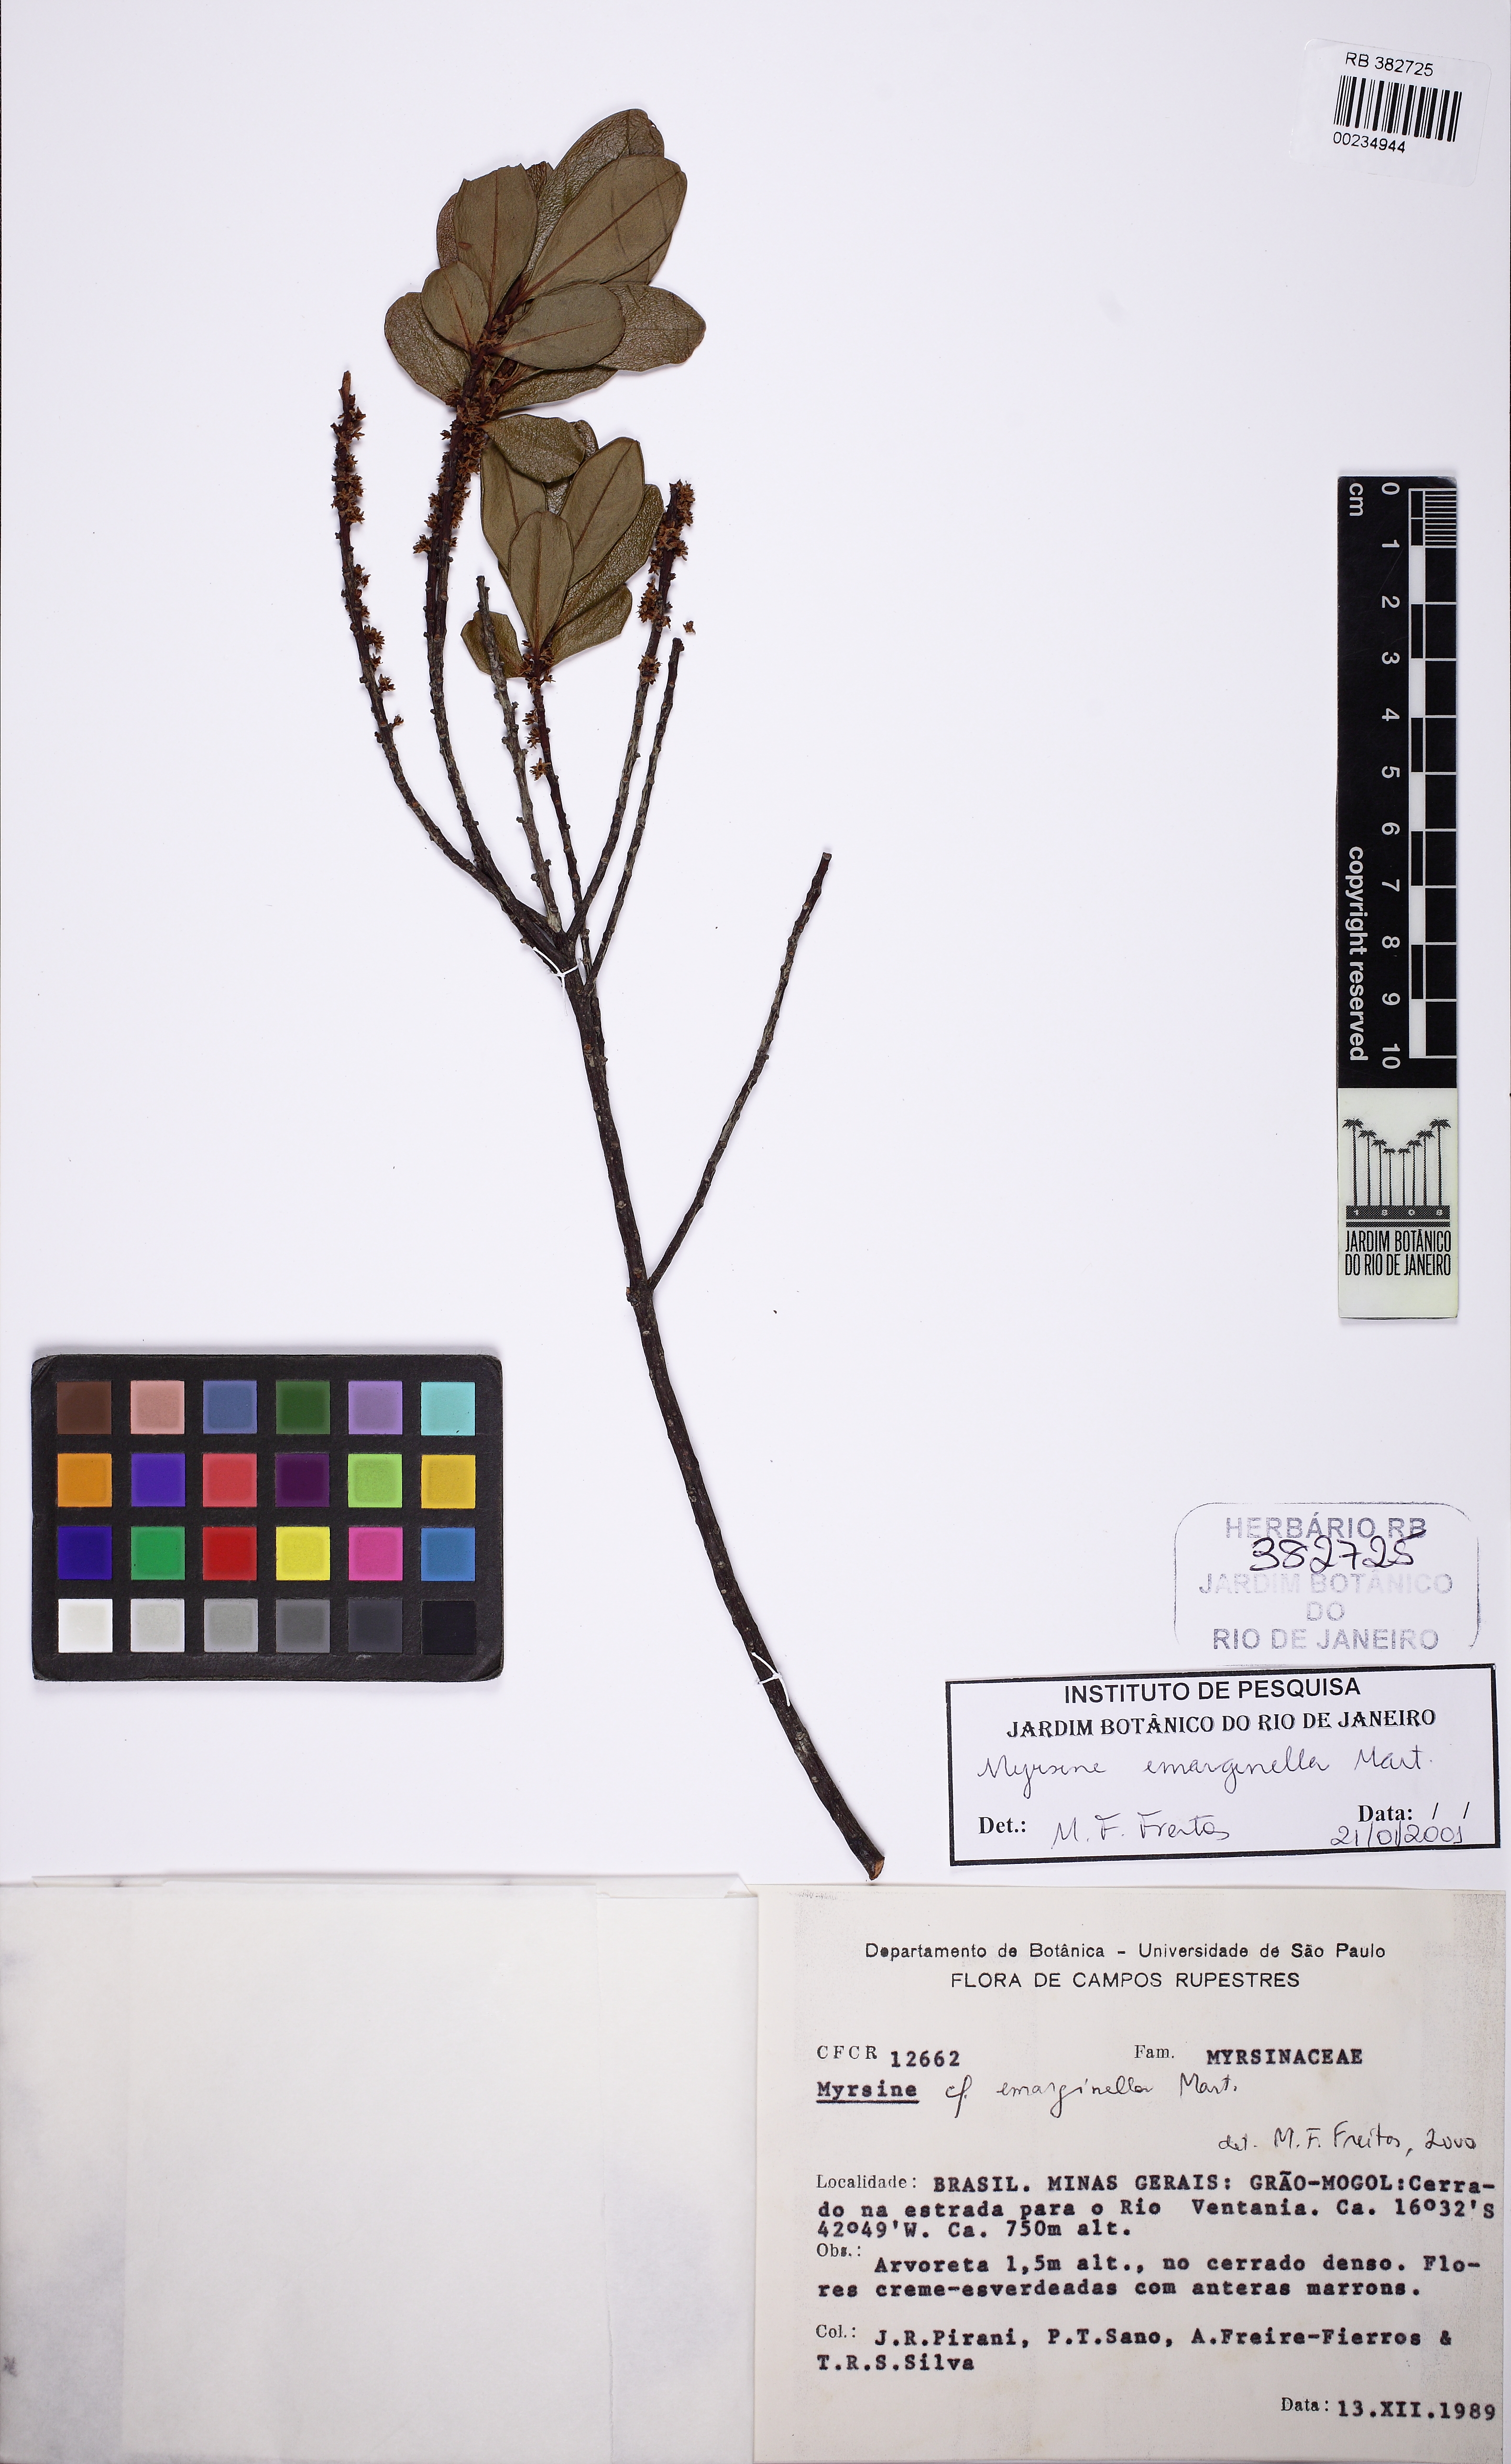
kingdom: Plantae
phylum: Tracheophyta
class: Magnoliopsida
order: Ericales
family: Primulaceae
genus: Myrsine
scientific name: Myrsine emarginella
